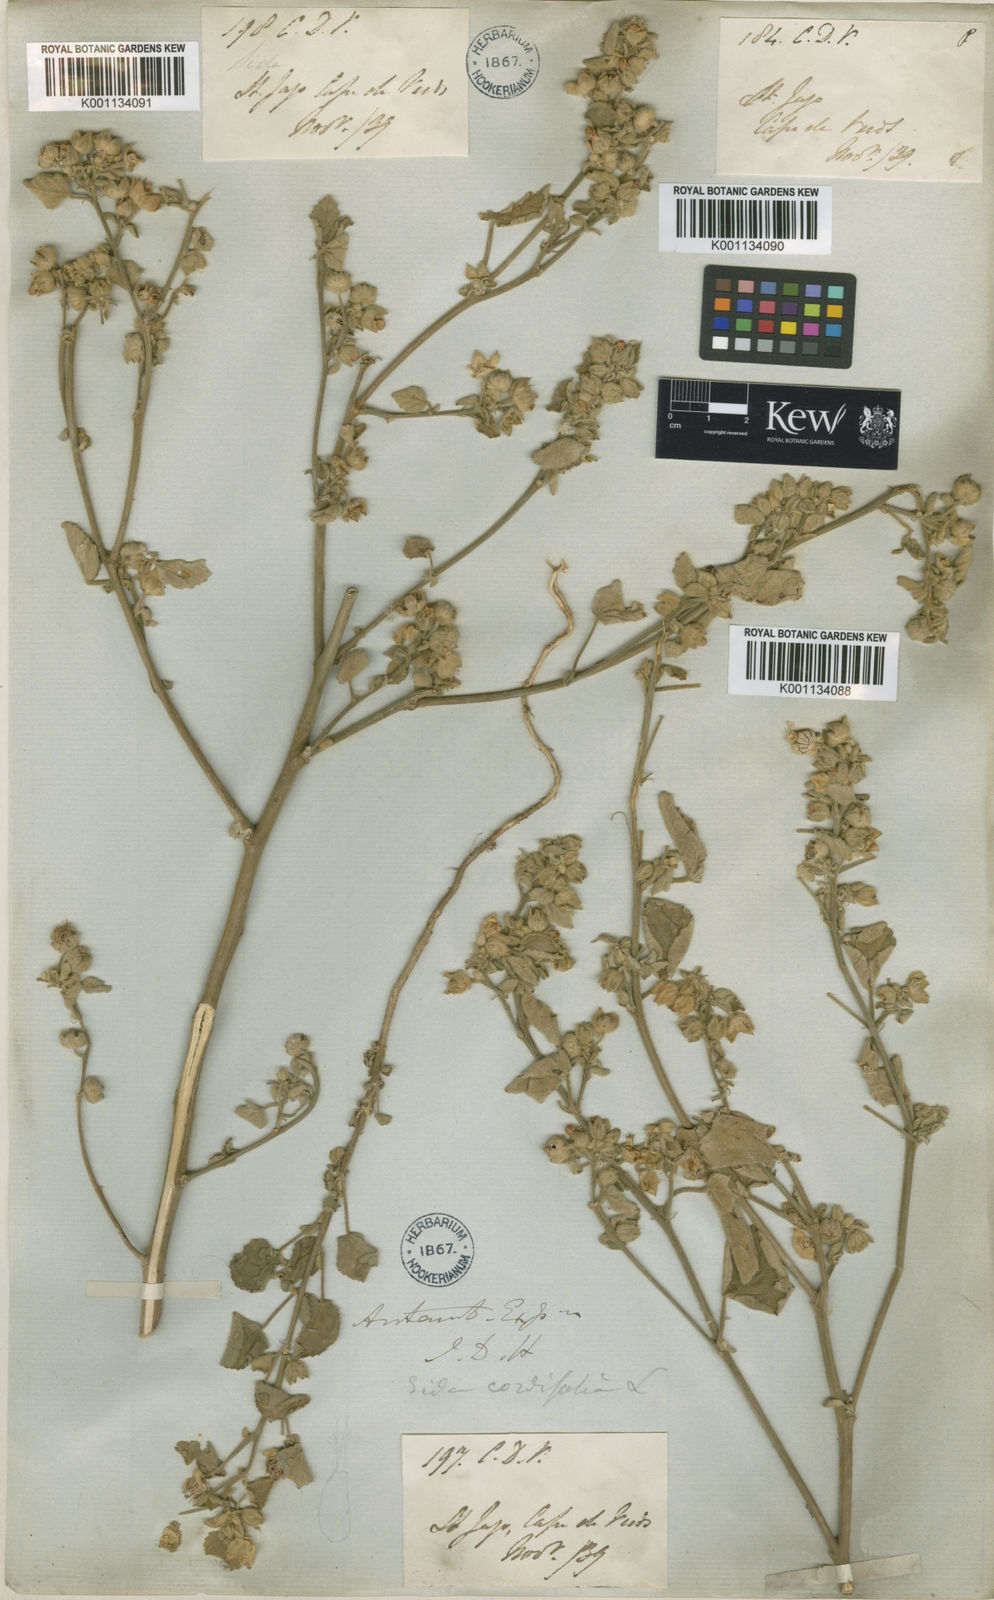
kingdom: Plantae
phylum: Tracheophyta
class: Magnoliopsida
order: Malvales
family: Malvaceae
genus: Sida
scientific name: Sida cordifolia
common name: Ilima
